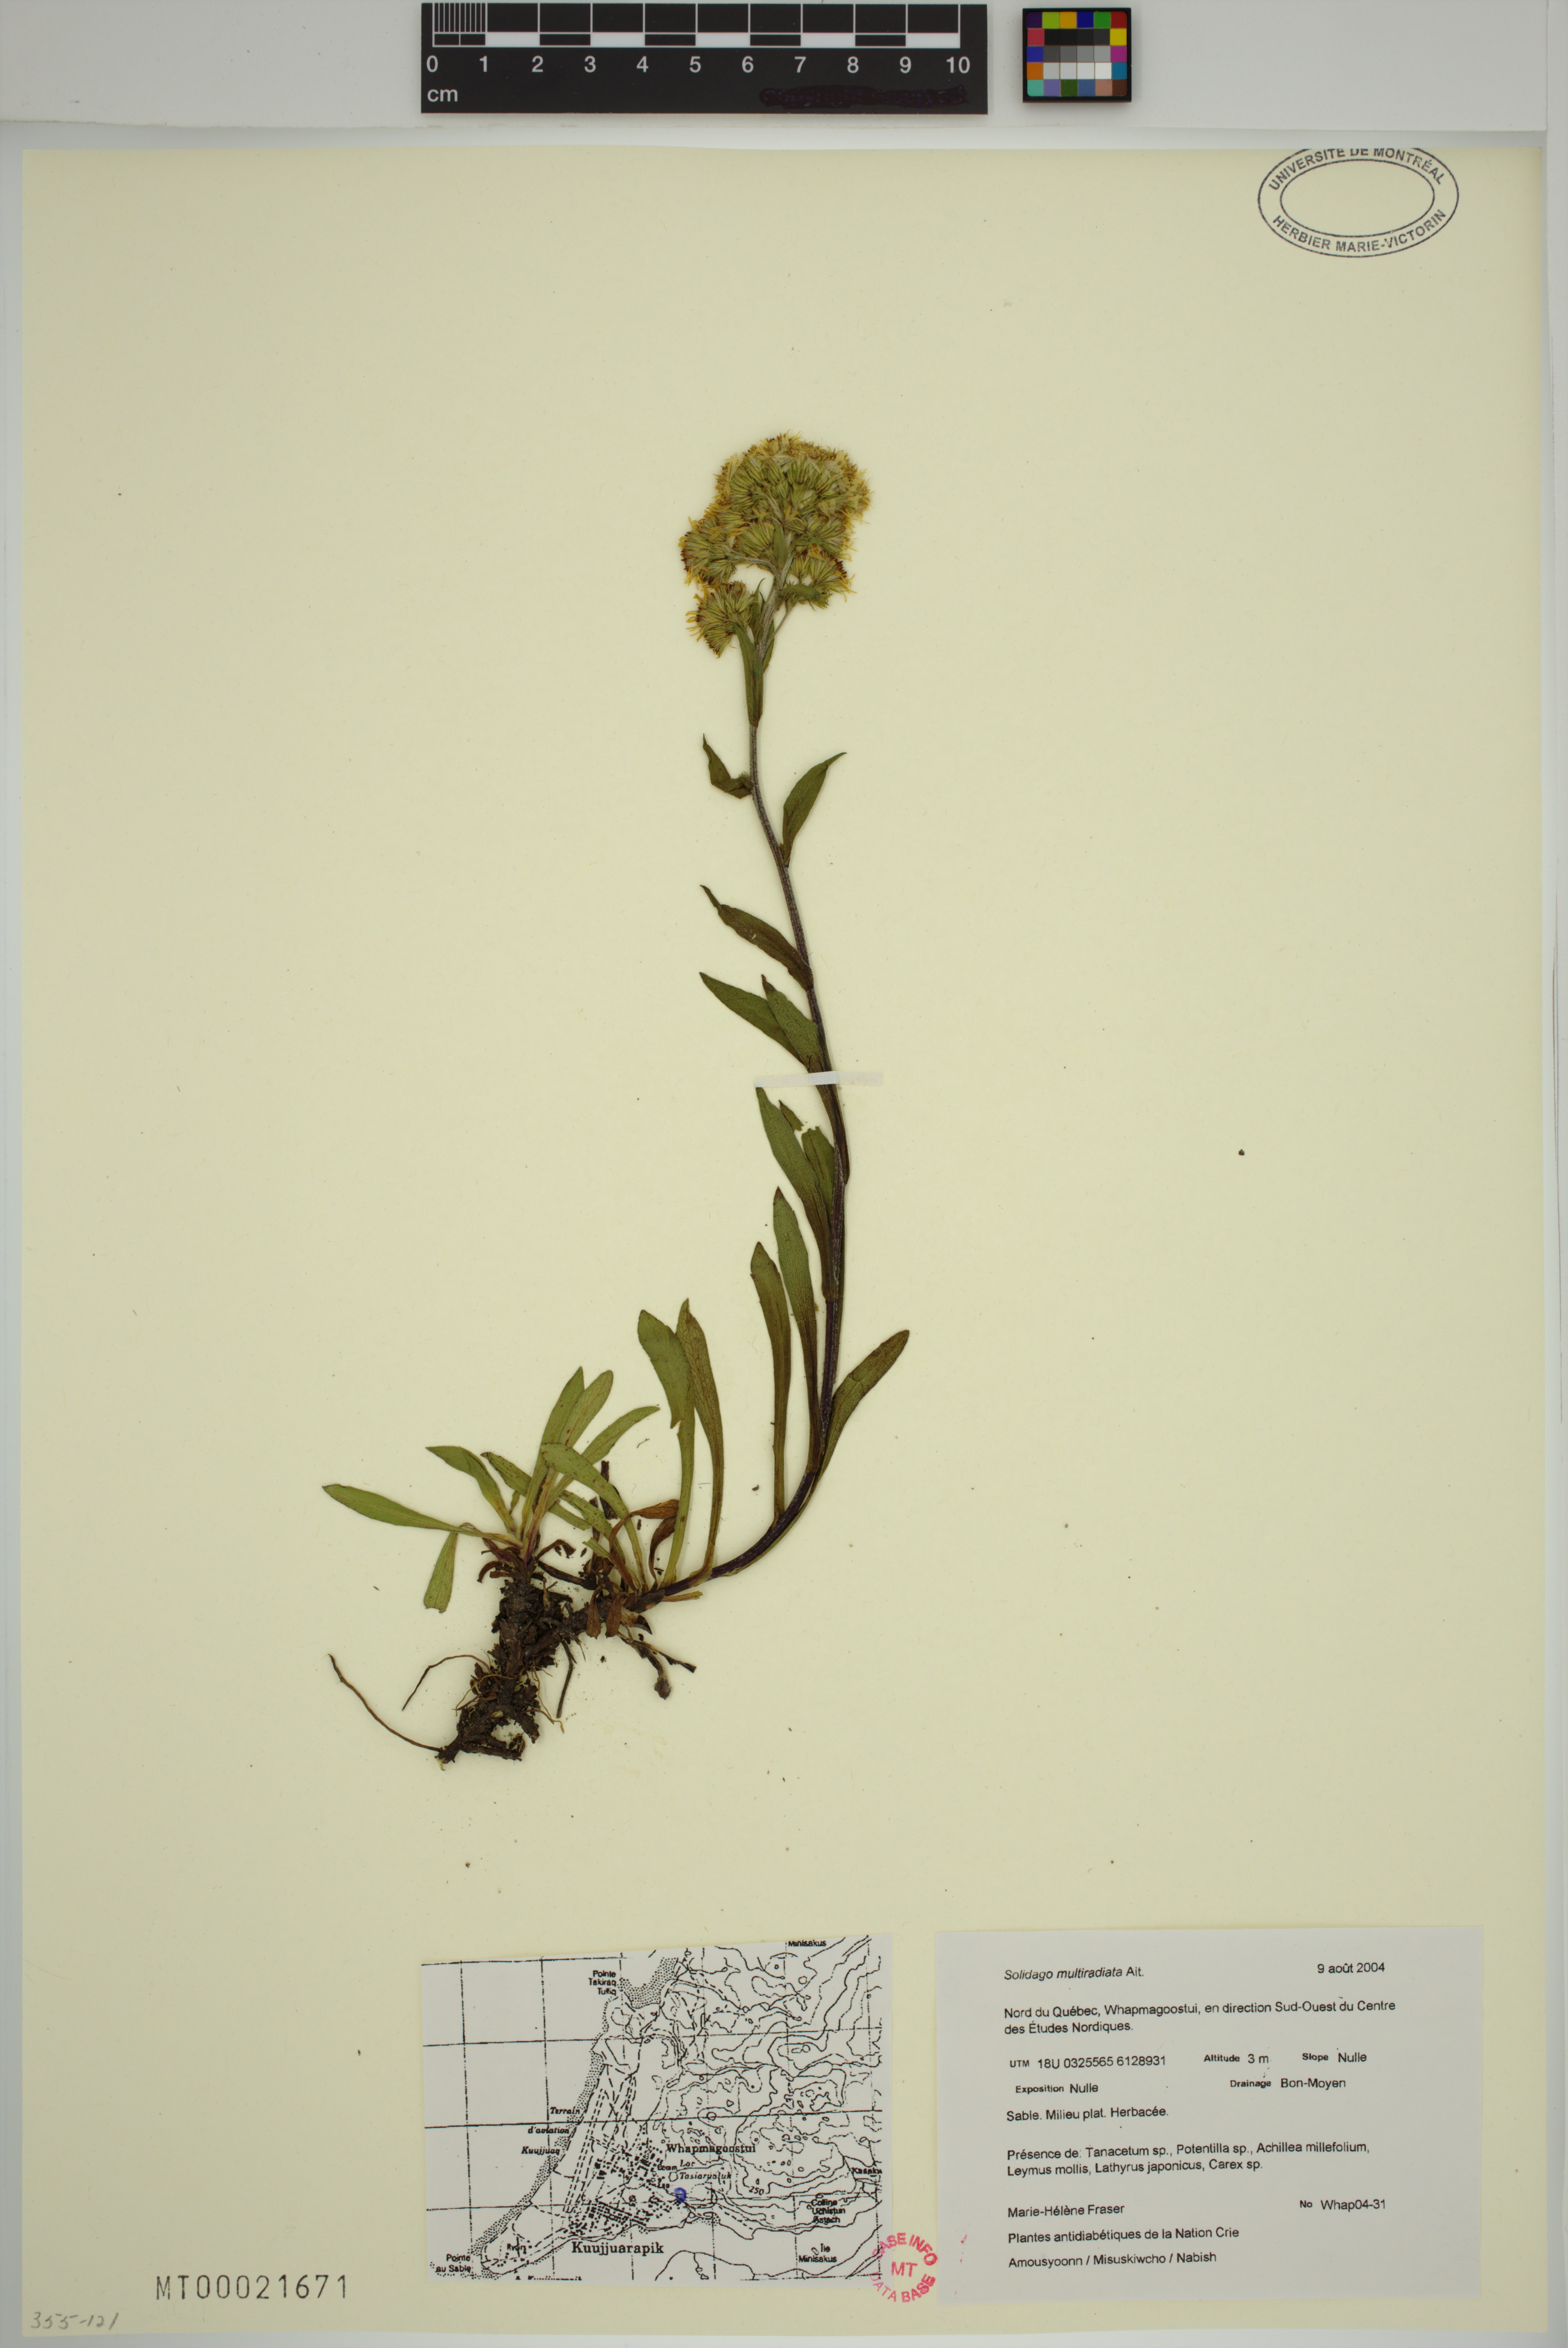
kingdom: Plantae
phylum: Tracheophyta
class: Magnoliopsida
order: Asterales
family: Asteraceae
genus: Solidago
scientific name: Solidago multiradiata
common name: Northern goldenrod
